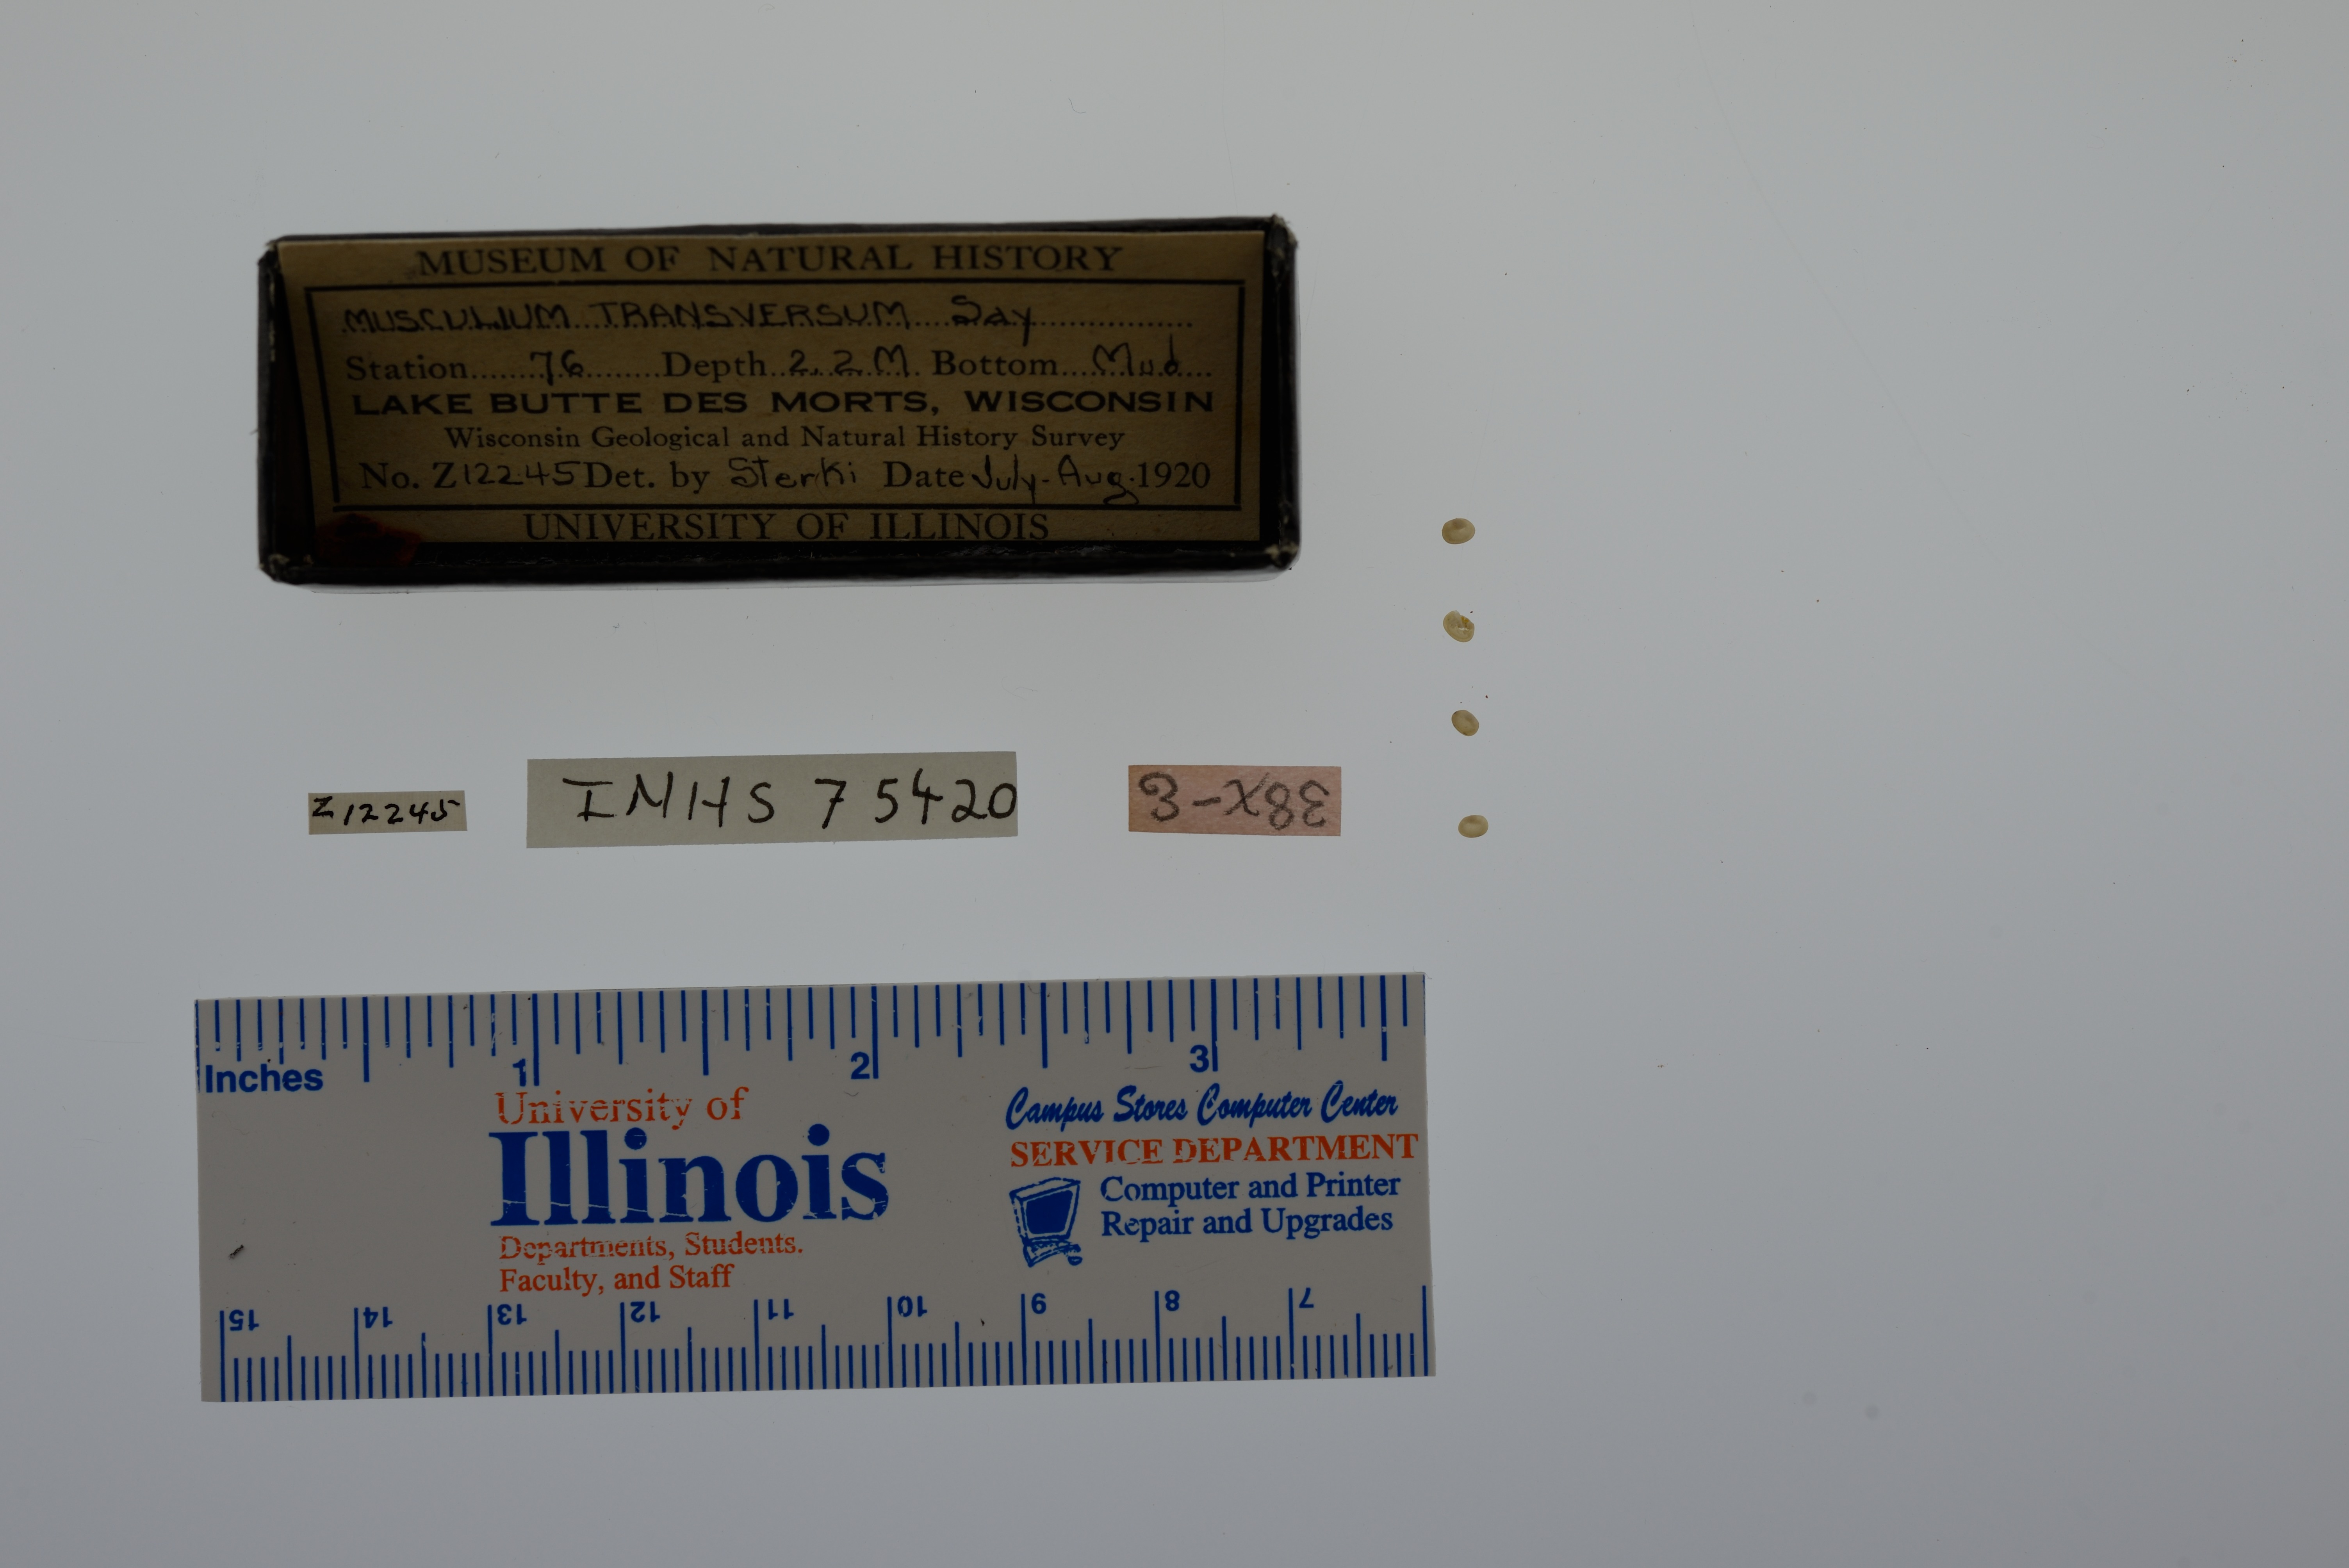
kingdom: Animalia
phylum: Mollusca
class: Bivalvia
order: Sphaeriida
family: Sphaeriidae
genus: Musculium
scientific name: Musculium transversum
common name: Oblong orb mussel
